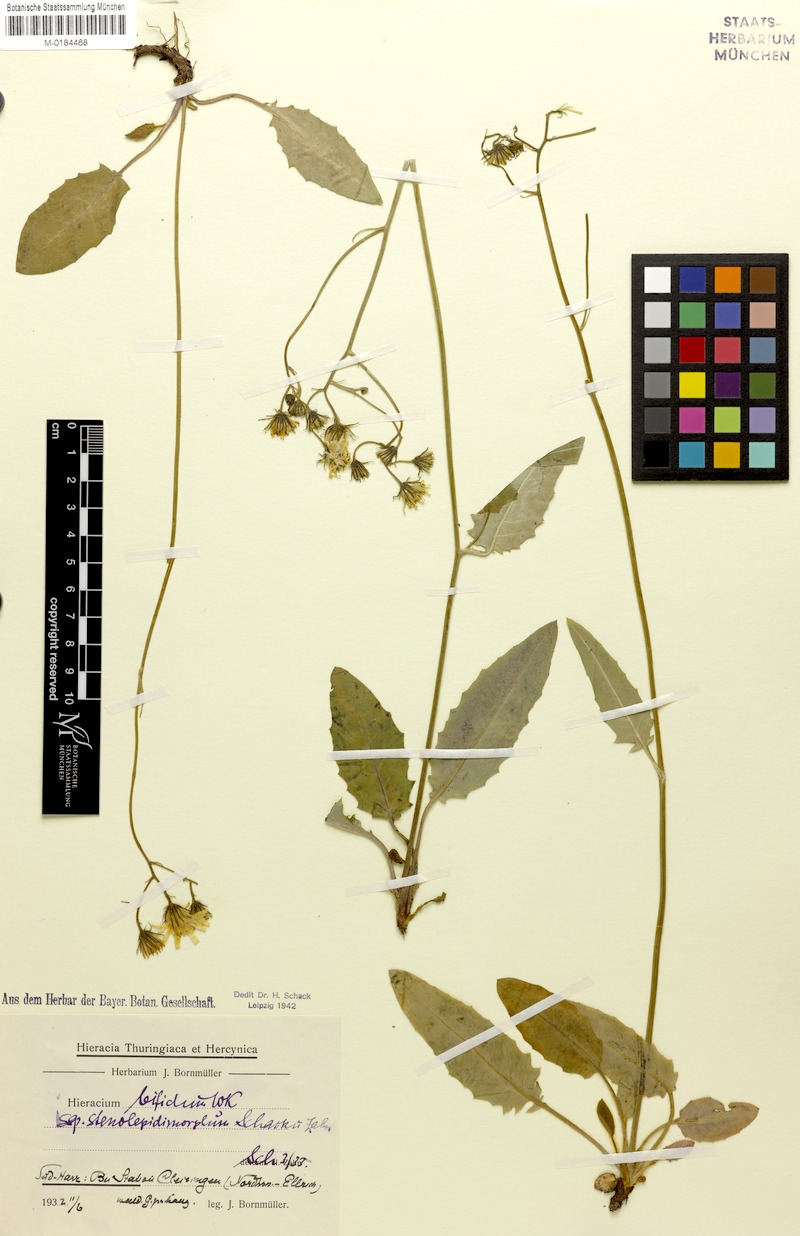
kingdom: Plantae
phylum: Tracheophyta
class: Magnoliopsida
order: Asterales
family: Asteraceae
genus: Hieracium
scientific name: Hieracium bifidum
